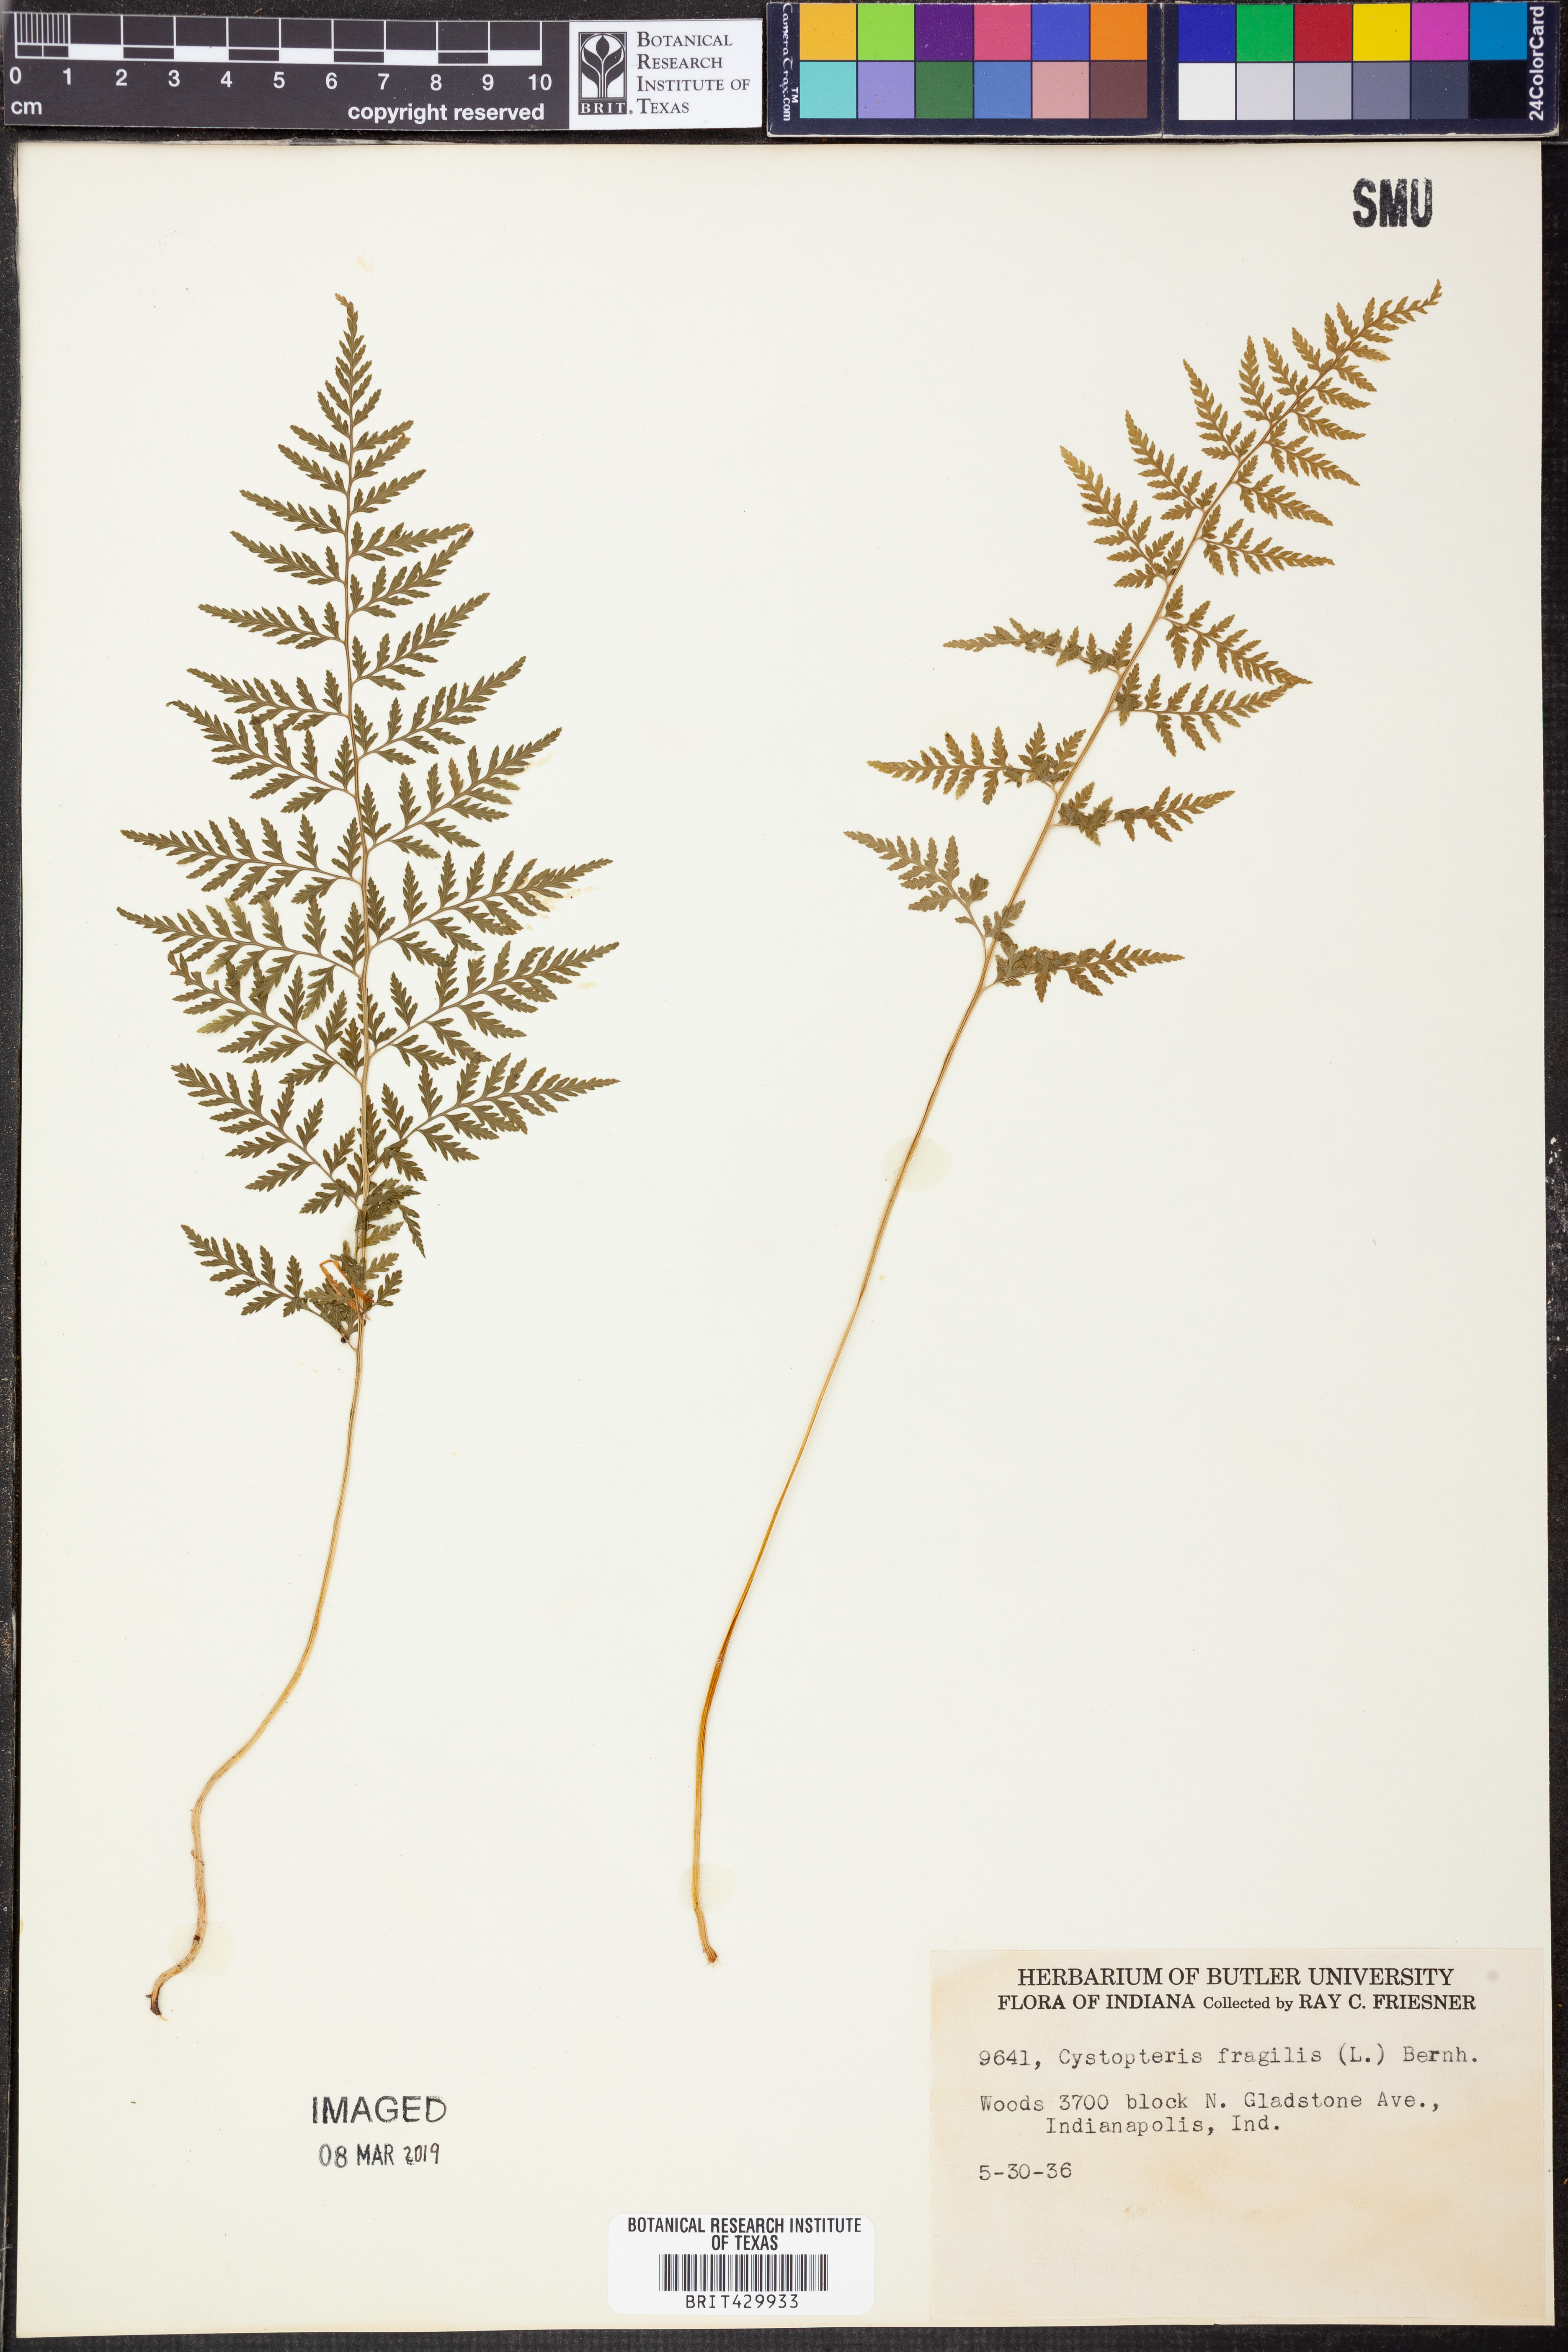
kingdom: Plantae
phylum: Tracheophyta
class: Polypodiopsida
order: Polypodiales
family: Cystopteridaceae
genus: Cystopteris
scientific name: Cystopteris fragilis
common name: Brittle bladder fern
